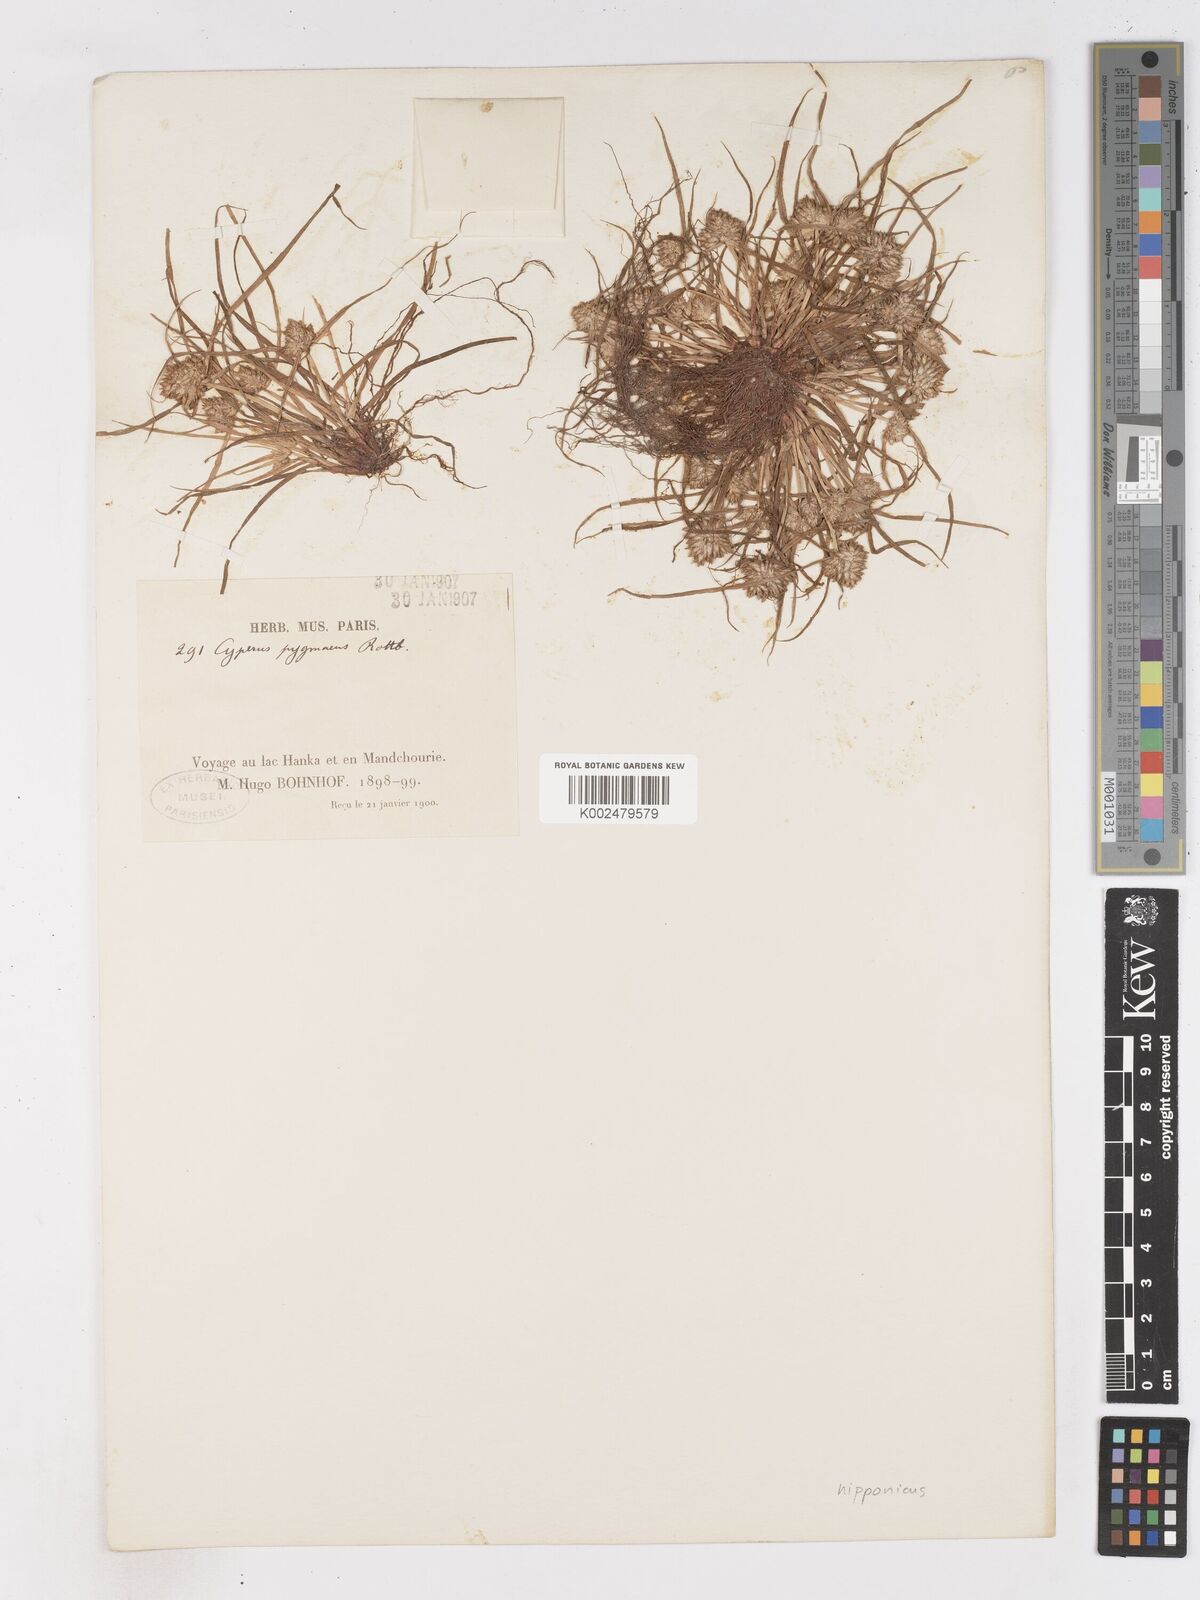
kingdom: Plantae
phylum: Tracheophyta
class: Liliopsida
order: Poales
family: Cyperaceae
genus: Cyperus
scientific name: Cyperus michelianus
